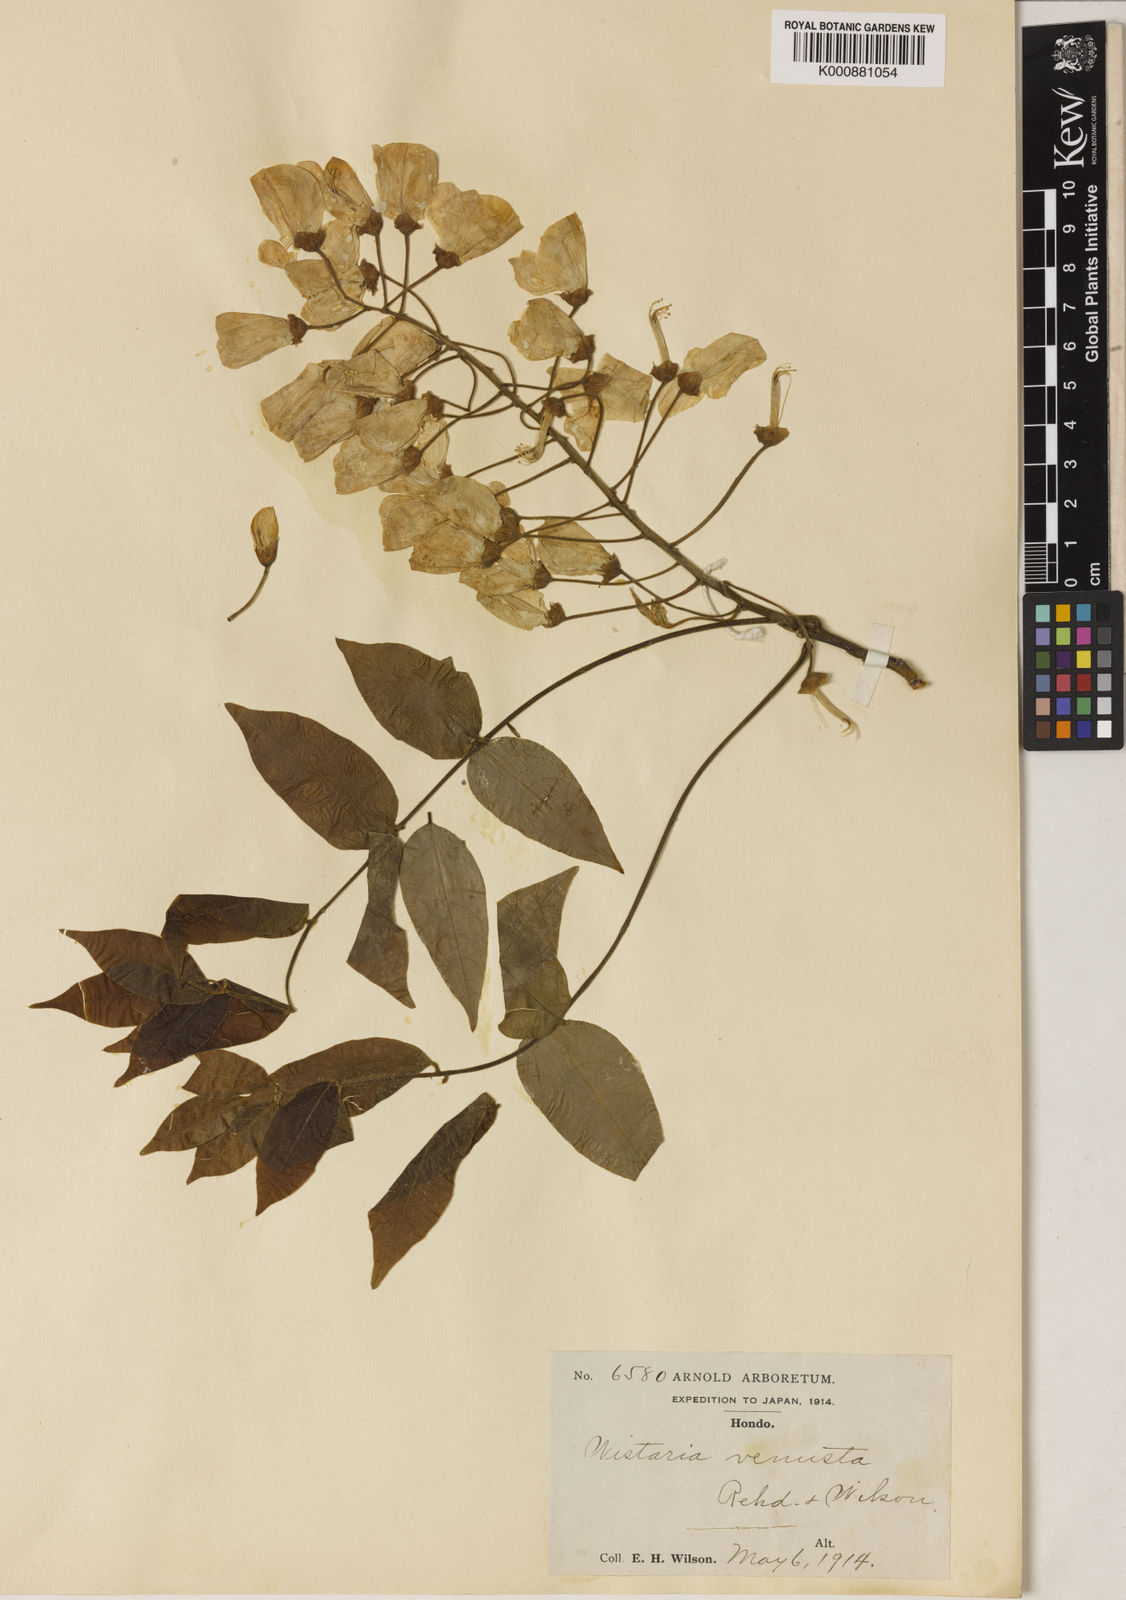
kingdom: Plantae
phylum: Tracheophyta
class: Magnoliopsida
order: Fabales
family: Fabaceae
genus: Wisteria
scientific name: Wisteria brachybotrys
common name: Silky wisteria
